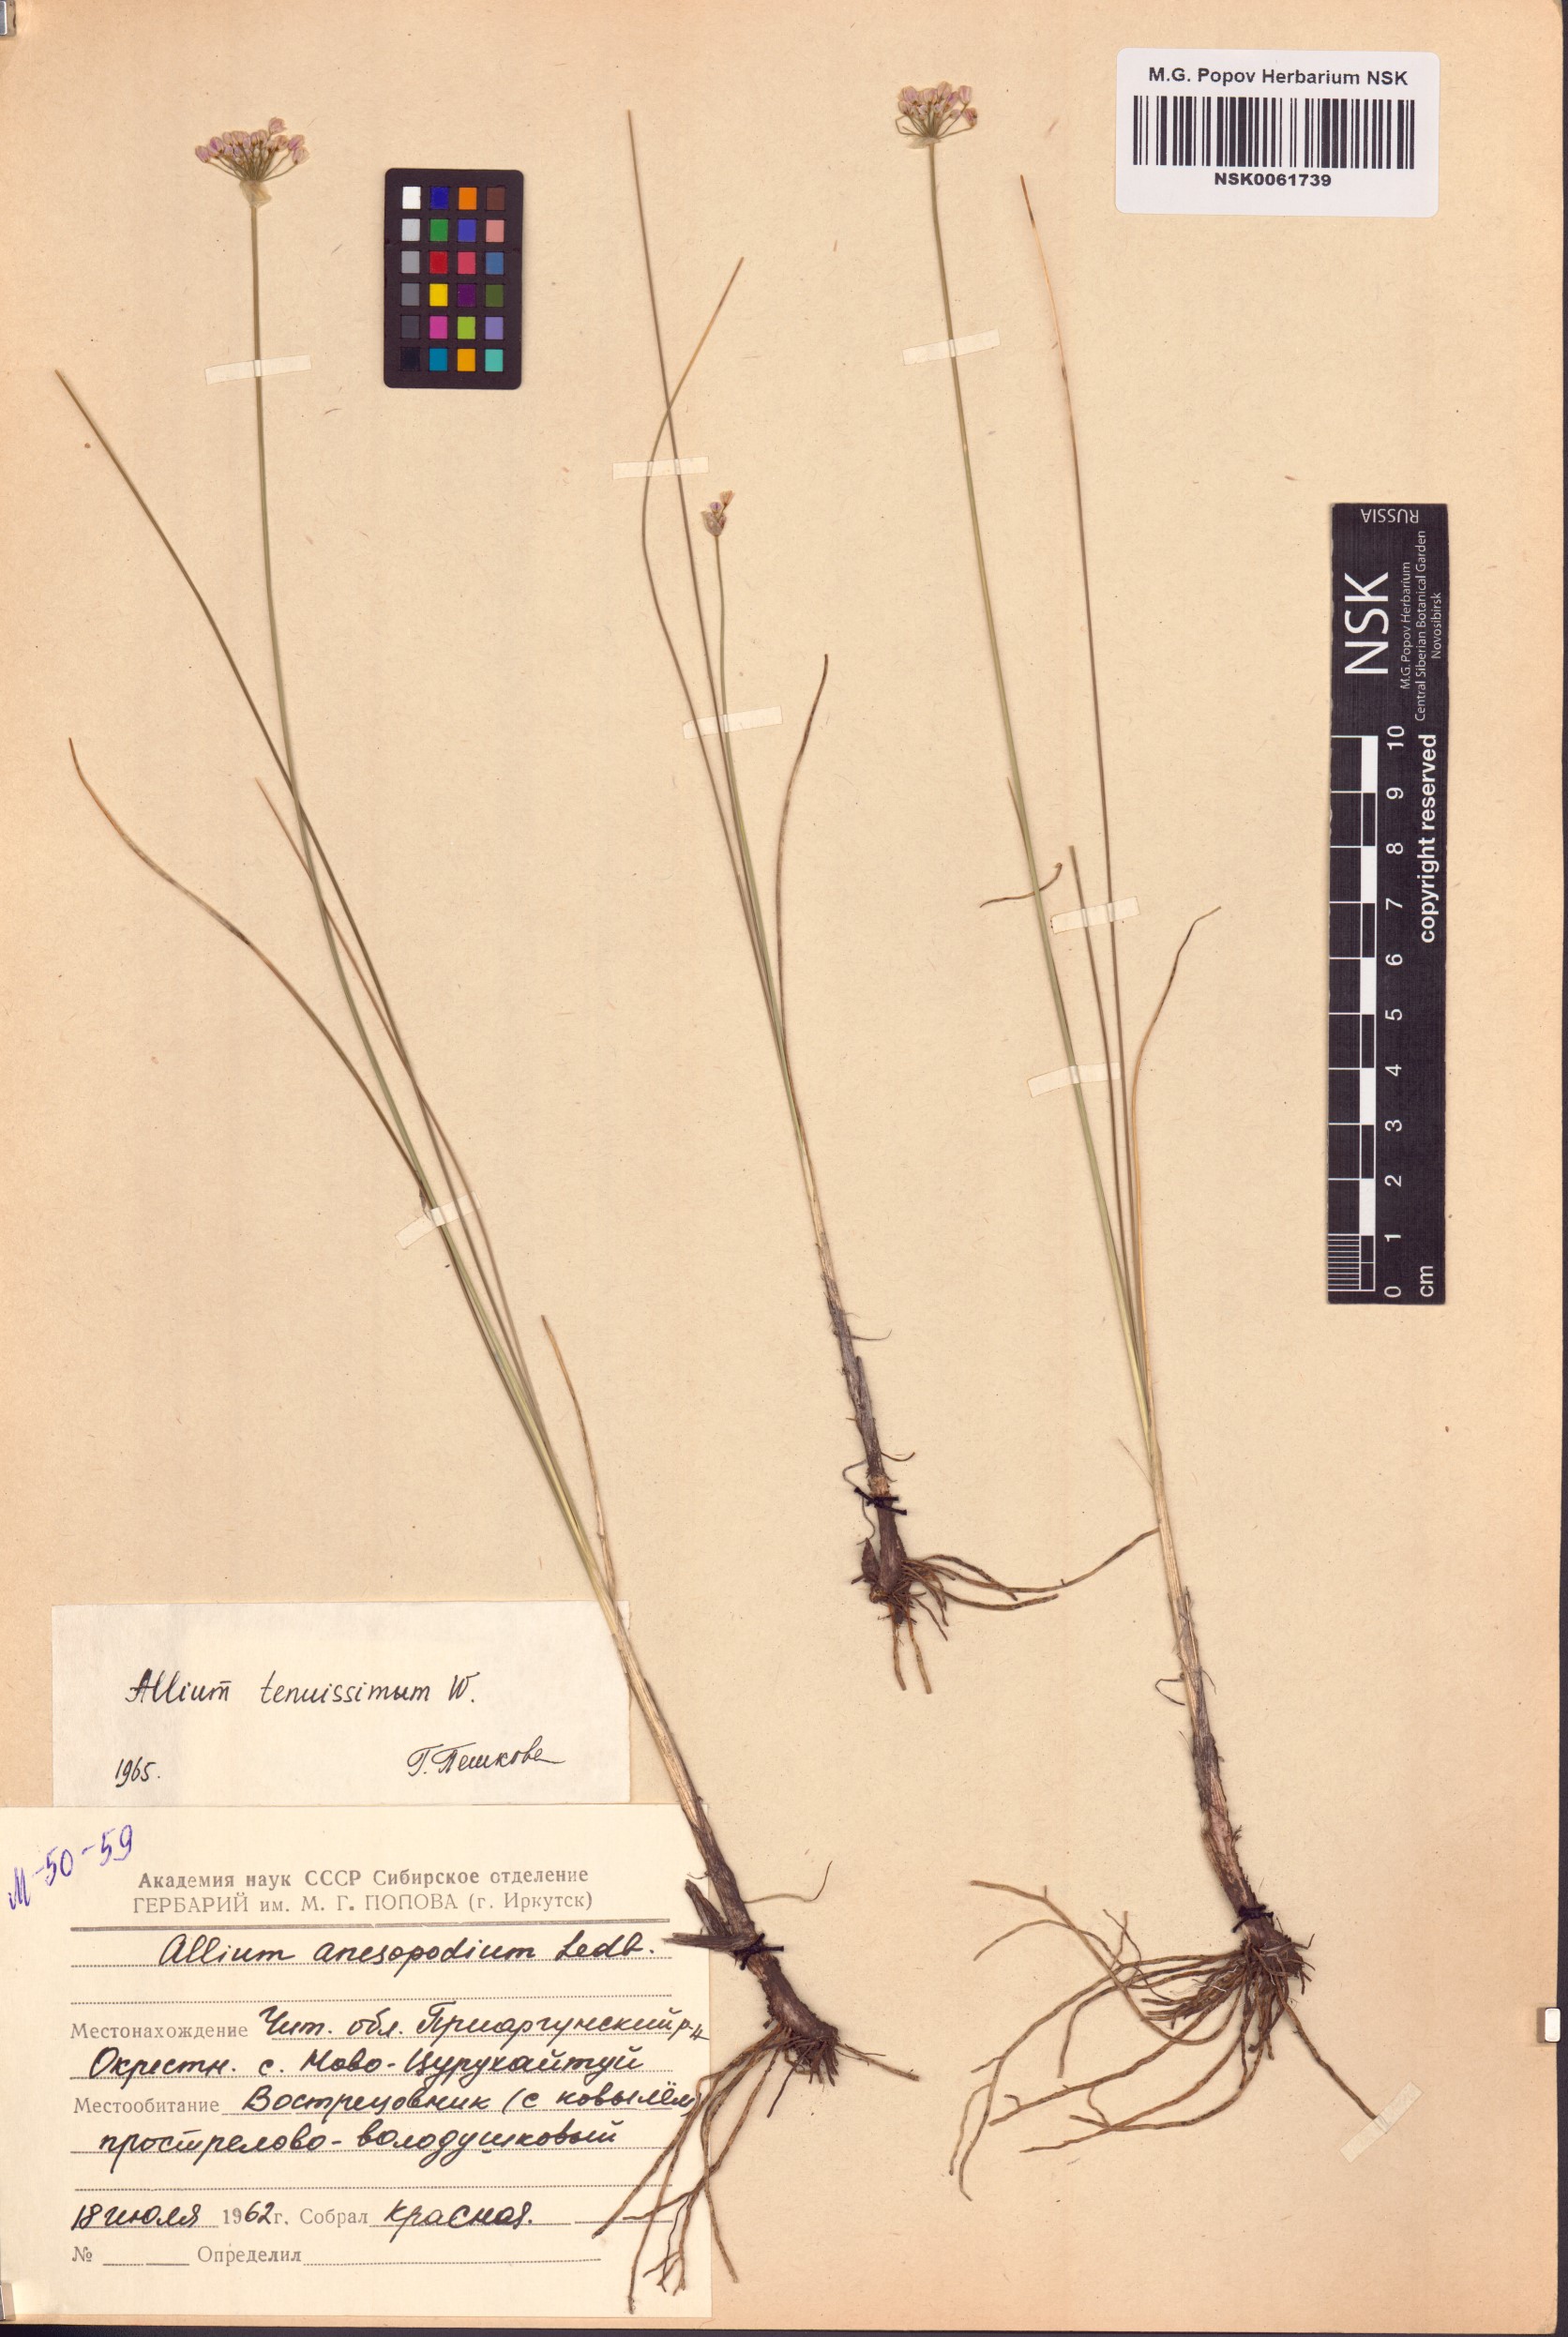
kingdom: Plantae
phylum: Tracheophyta
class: Liliopsida
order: Asparagales
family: Amaryllidaceae
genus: Allium
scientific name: Allium tenuissimum
